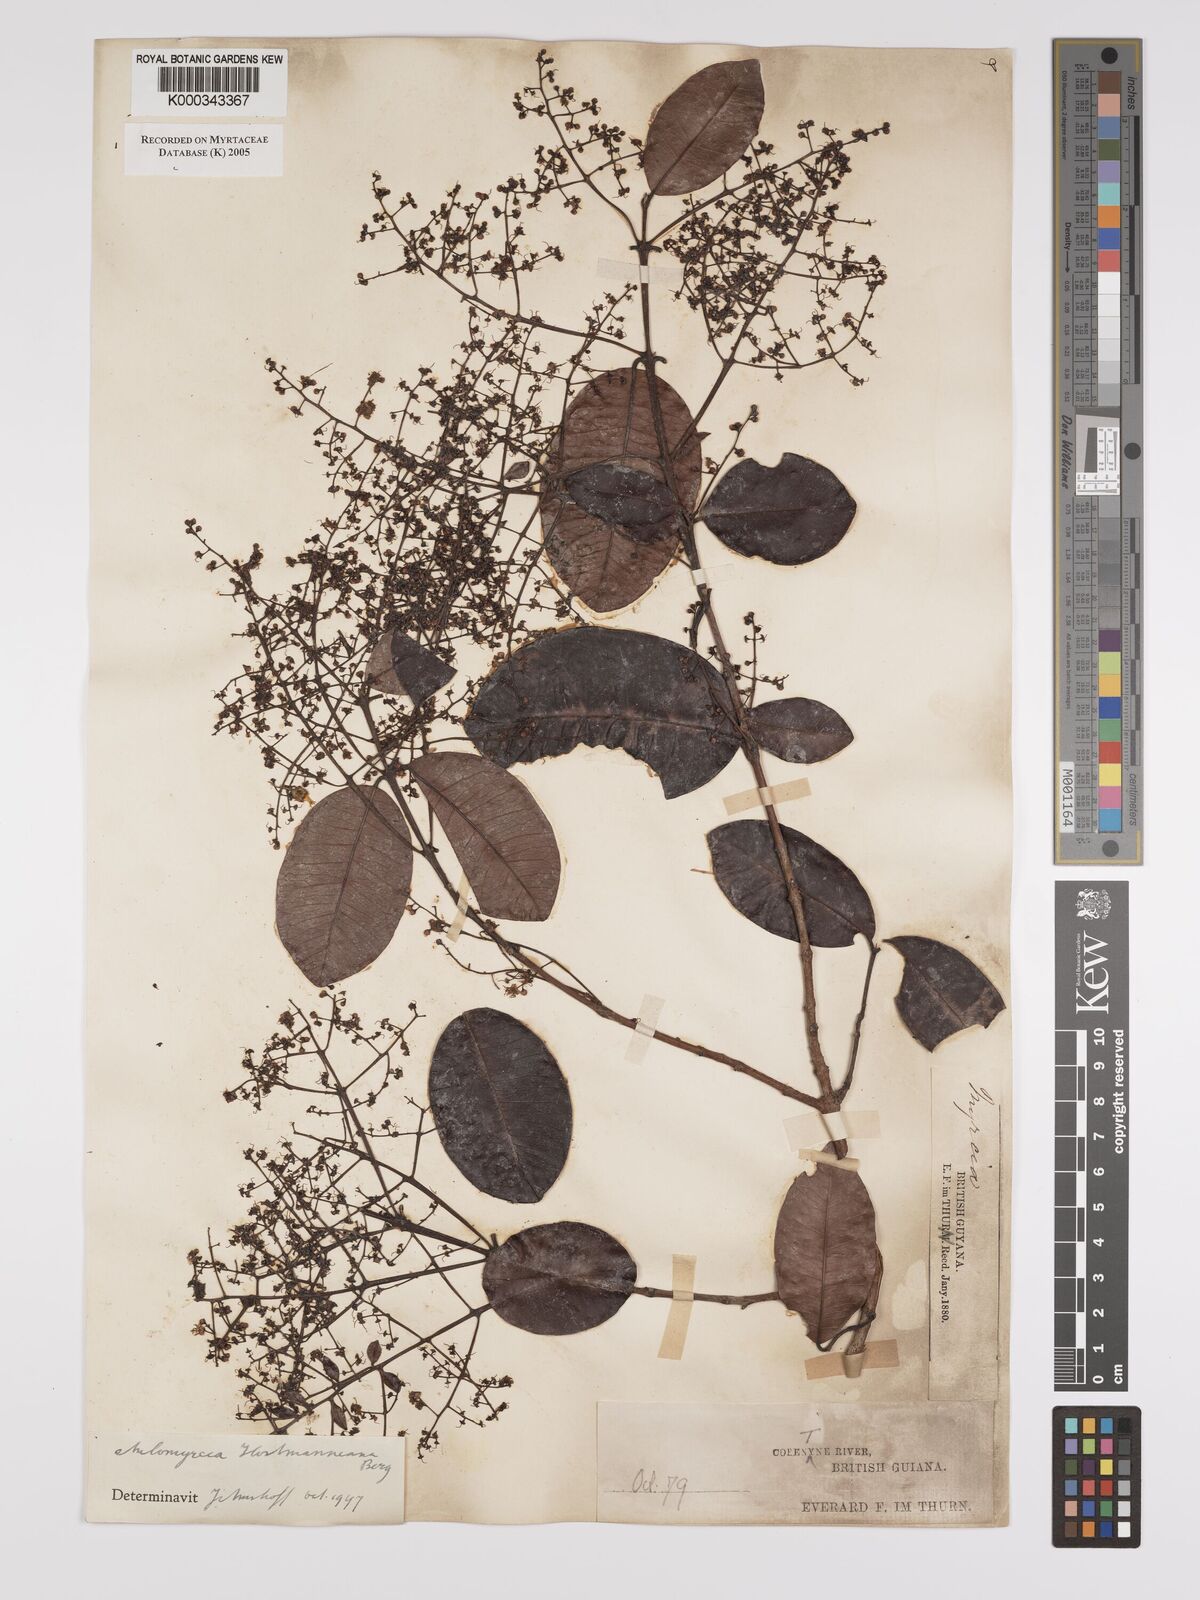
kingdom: Plantae
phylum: Tracheophyta
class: Magnoliopsida
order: Myrtales
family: Myrtaceae
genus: Myrcia
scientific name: Myrcia amazonica
